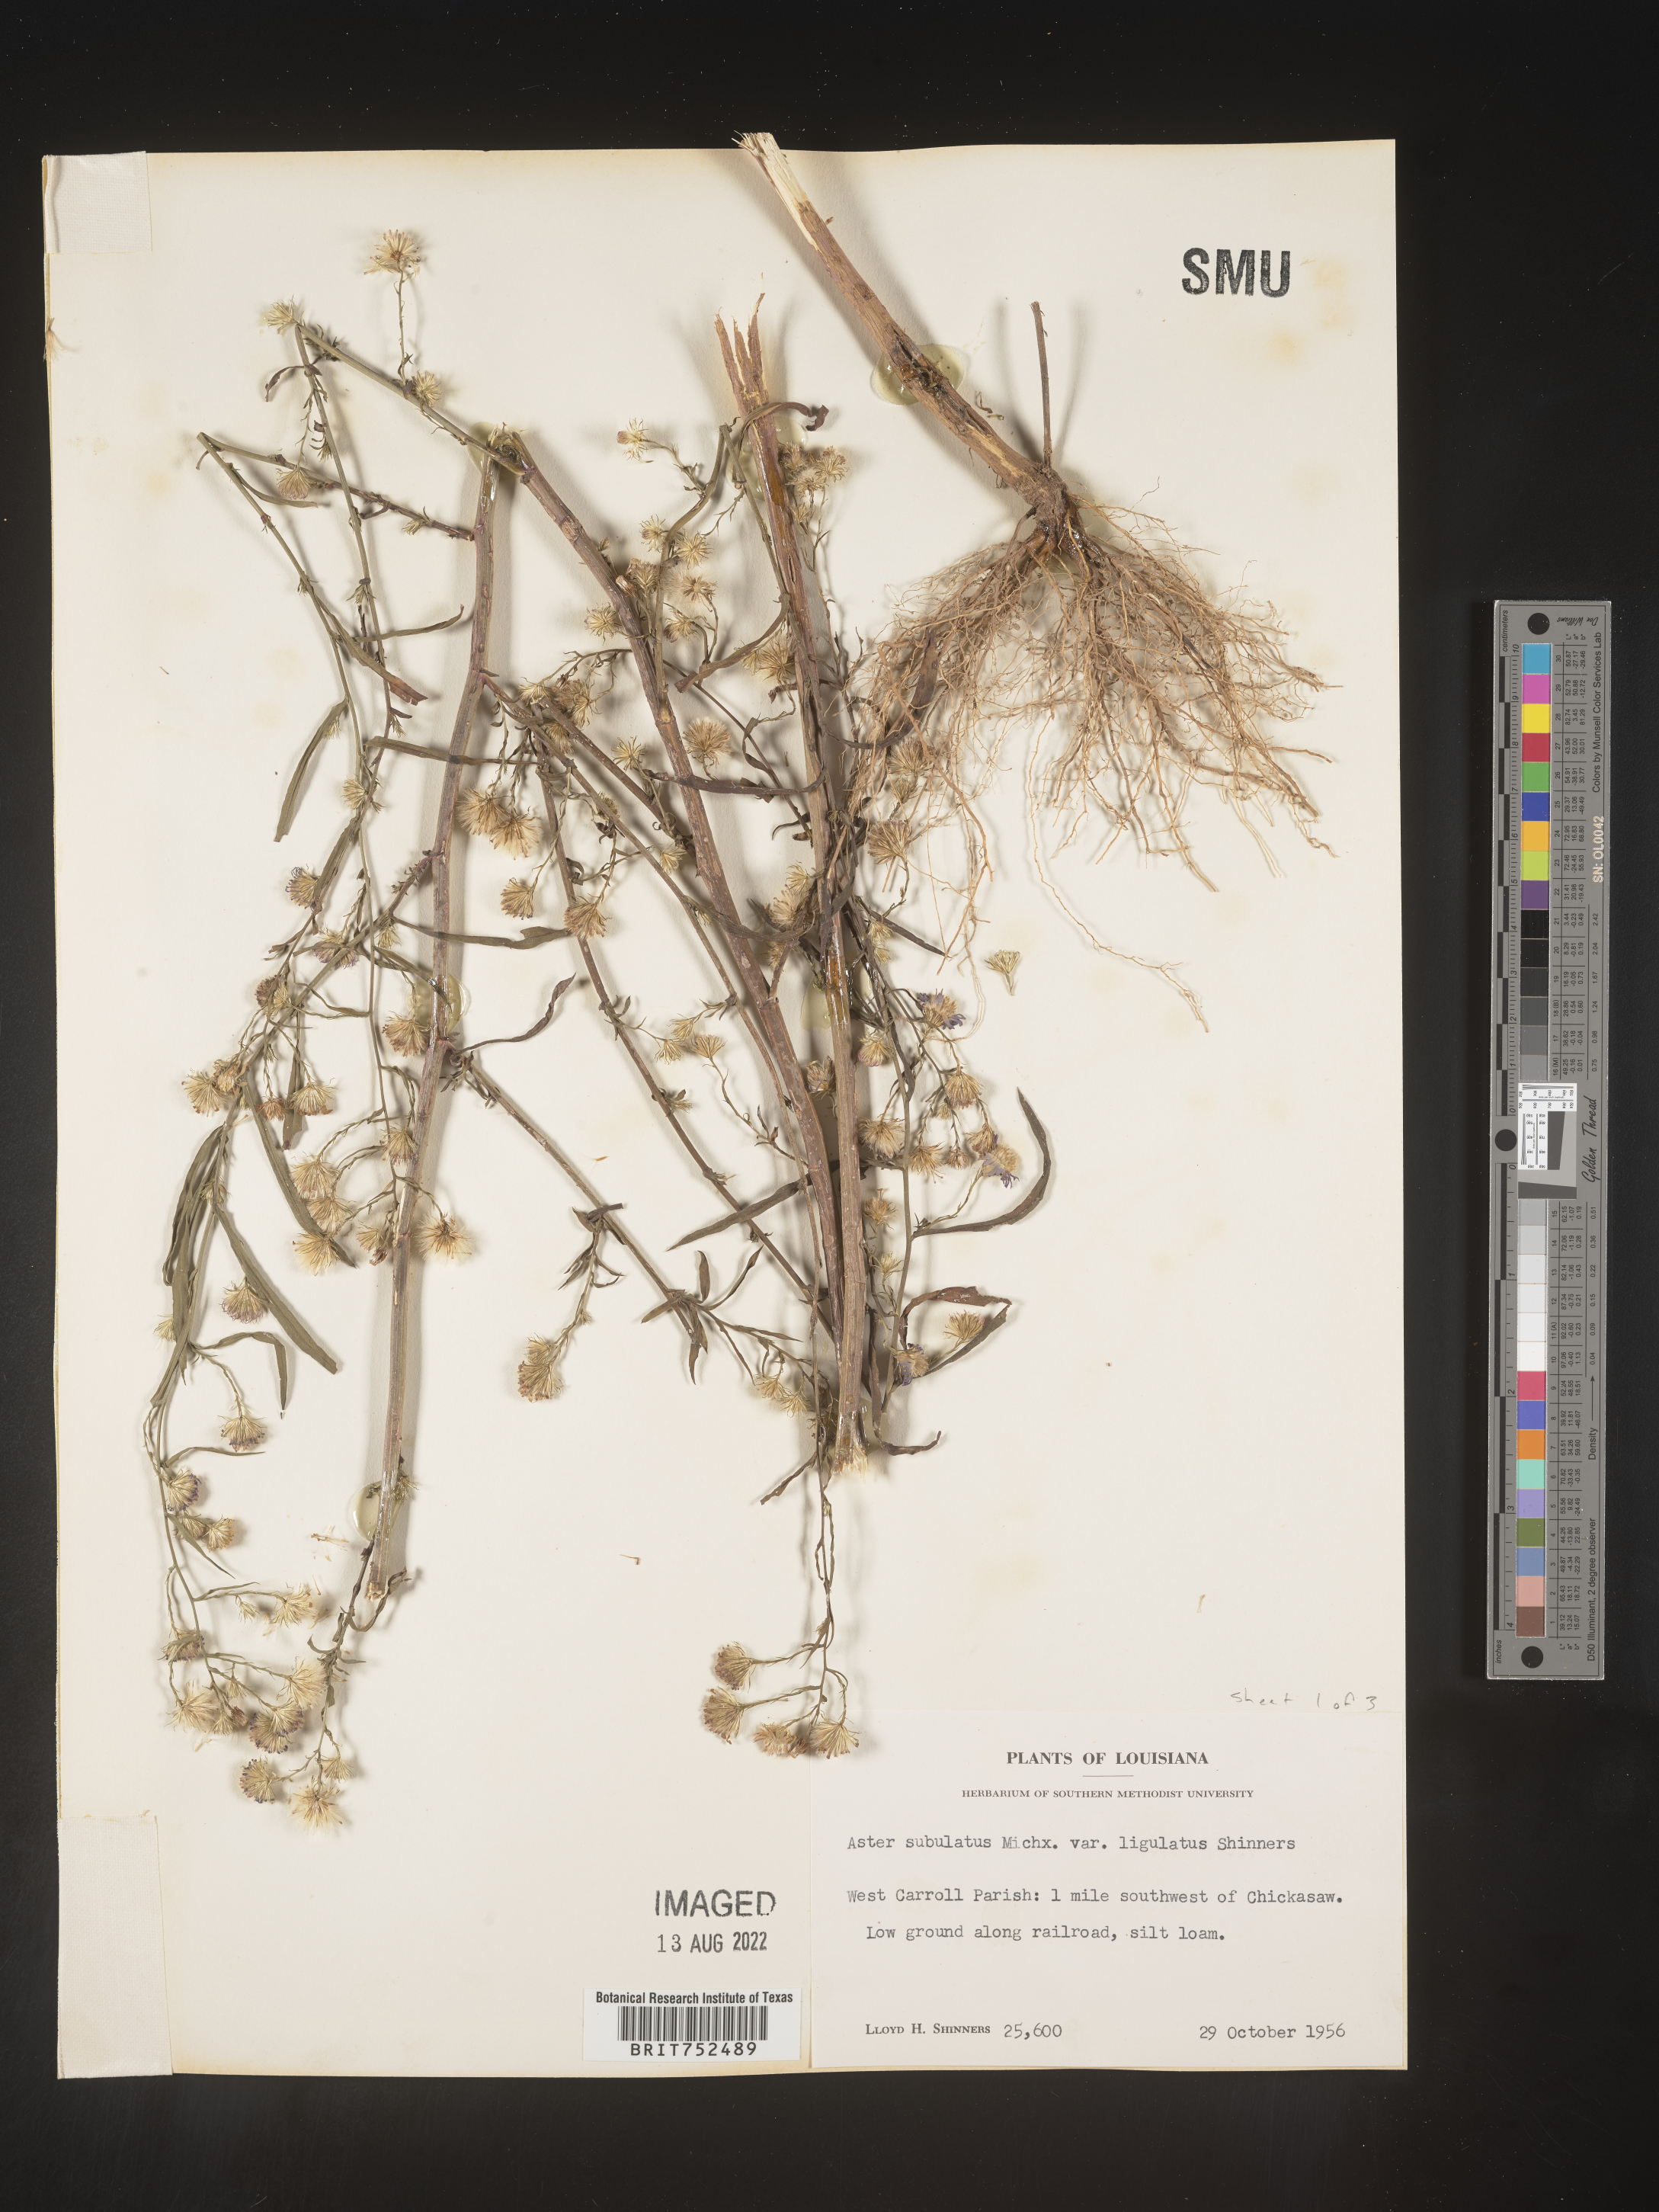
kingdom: Plantae
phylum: Tracheophyta
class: Magnoliopsida
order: Asterales
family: Asteraceae
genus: Symphyotrichum
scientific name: Symphyotrichum divaricatum
